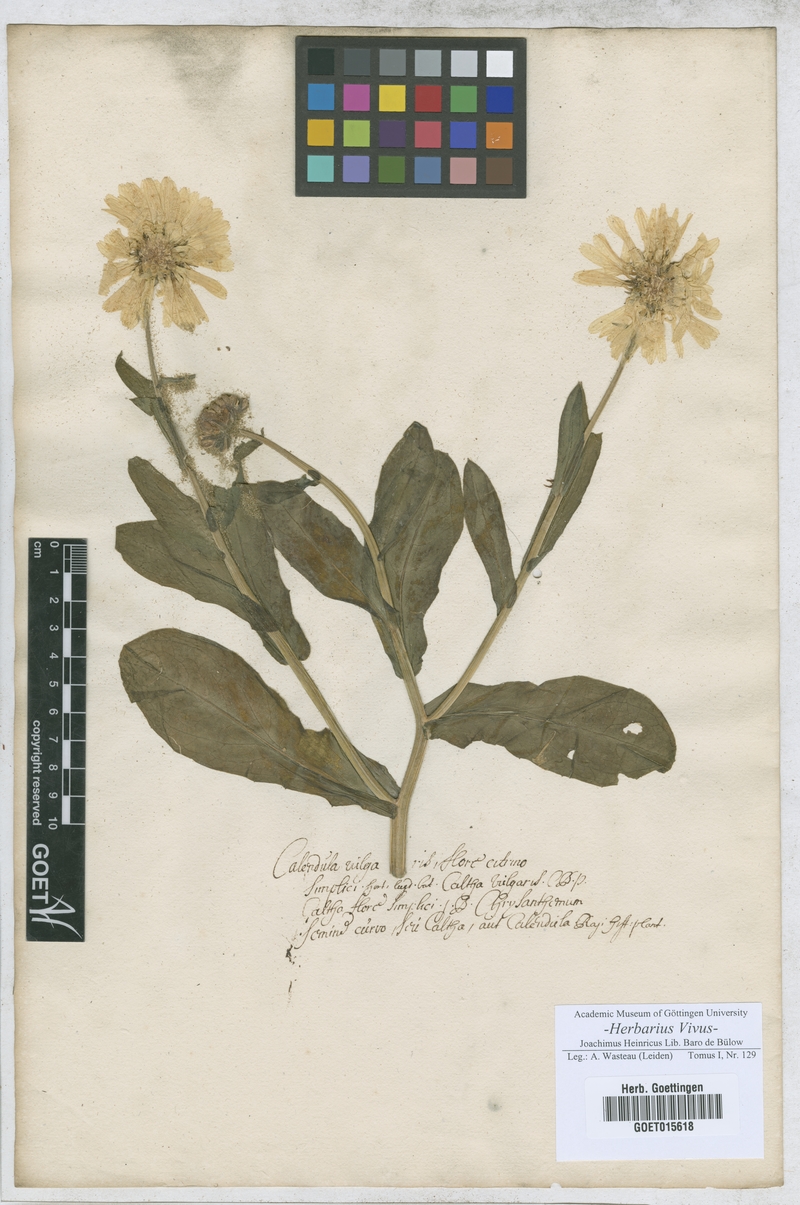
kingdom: Plantae
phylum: Tracheophyta
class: Magnoliopsida
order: Asterales
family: Asteraceae
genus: Calendula
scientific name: Calendula officinalis
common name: Pot marigold
